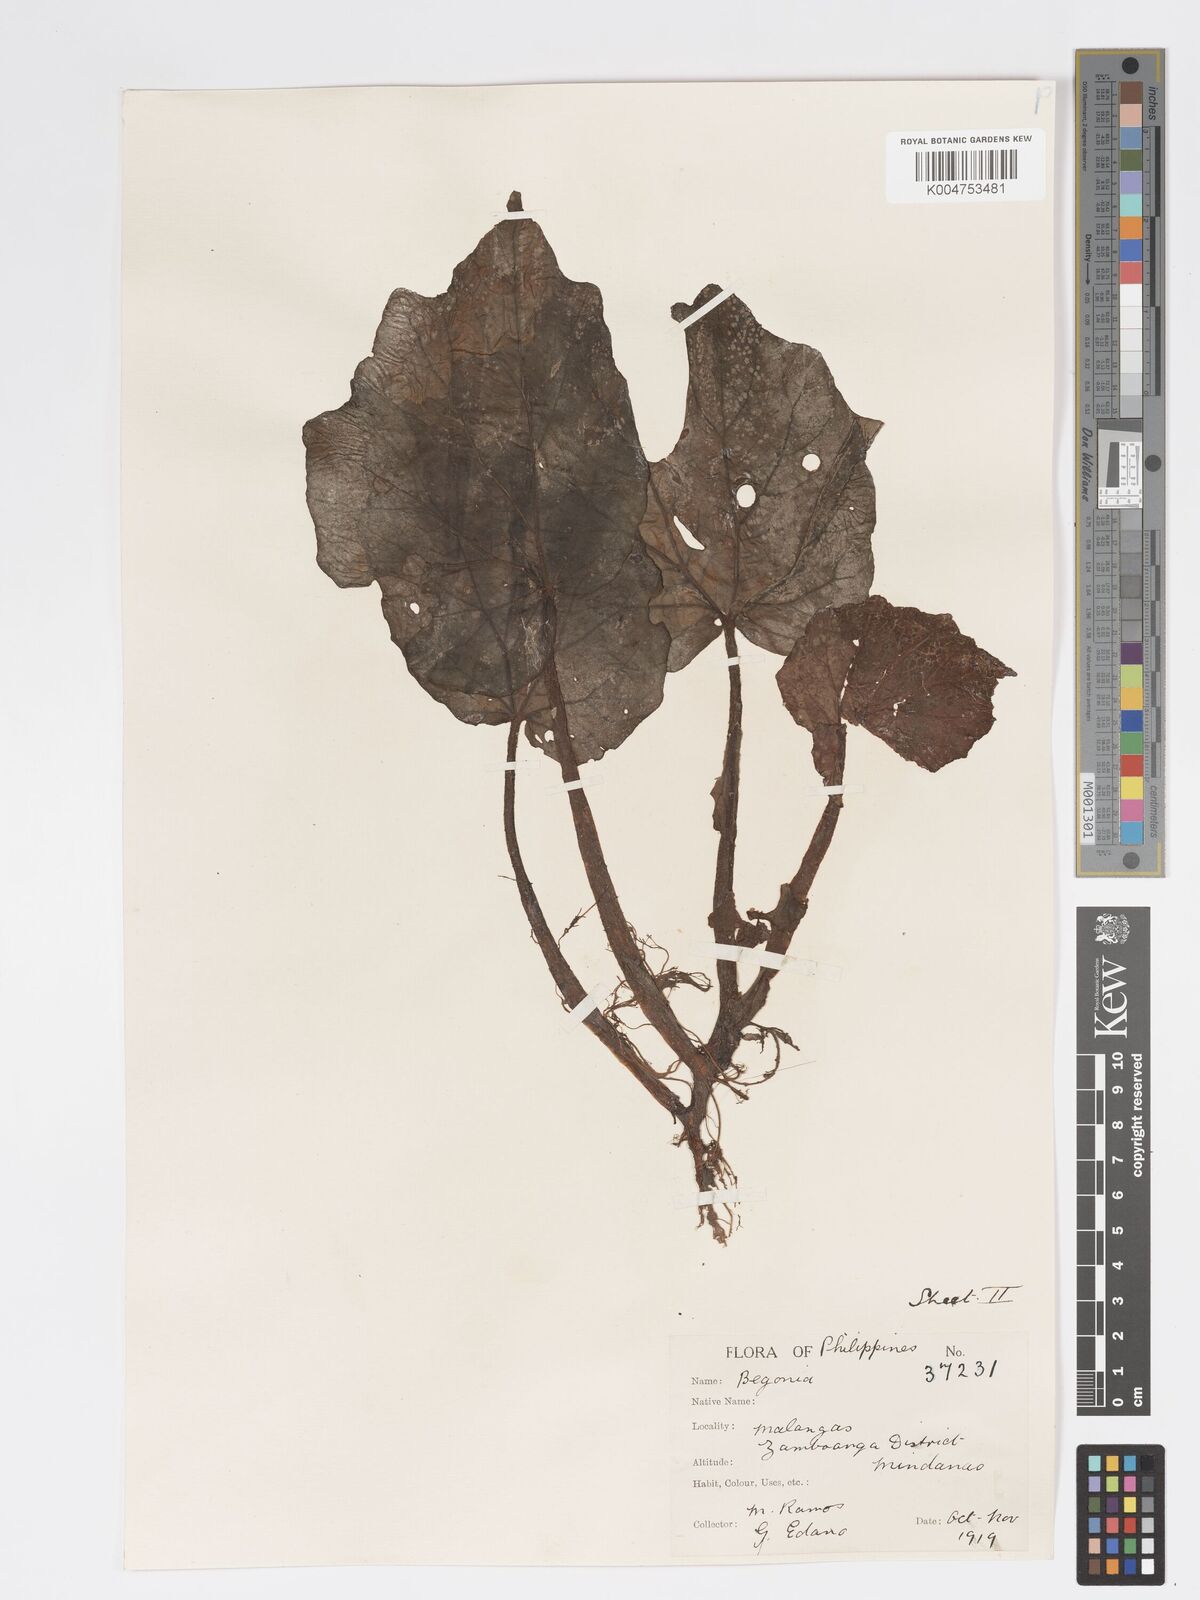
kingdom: Plantae
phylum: Tracheophyta
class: Magnoliopsida
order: Cucurbitales
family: Begoniaceae
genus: Begonia
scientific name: Begonia
